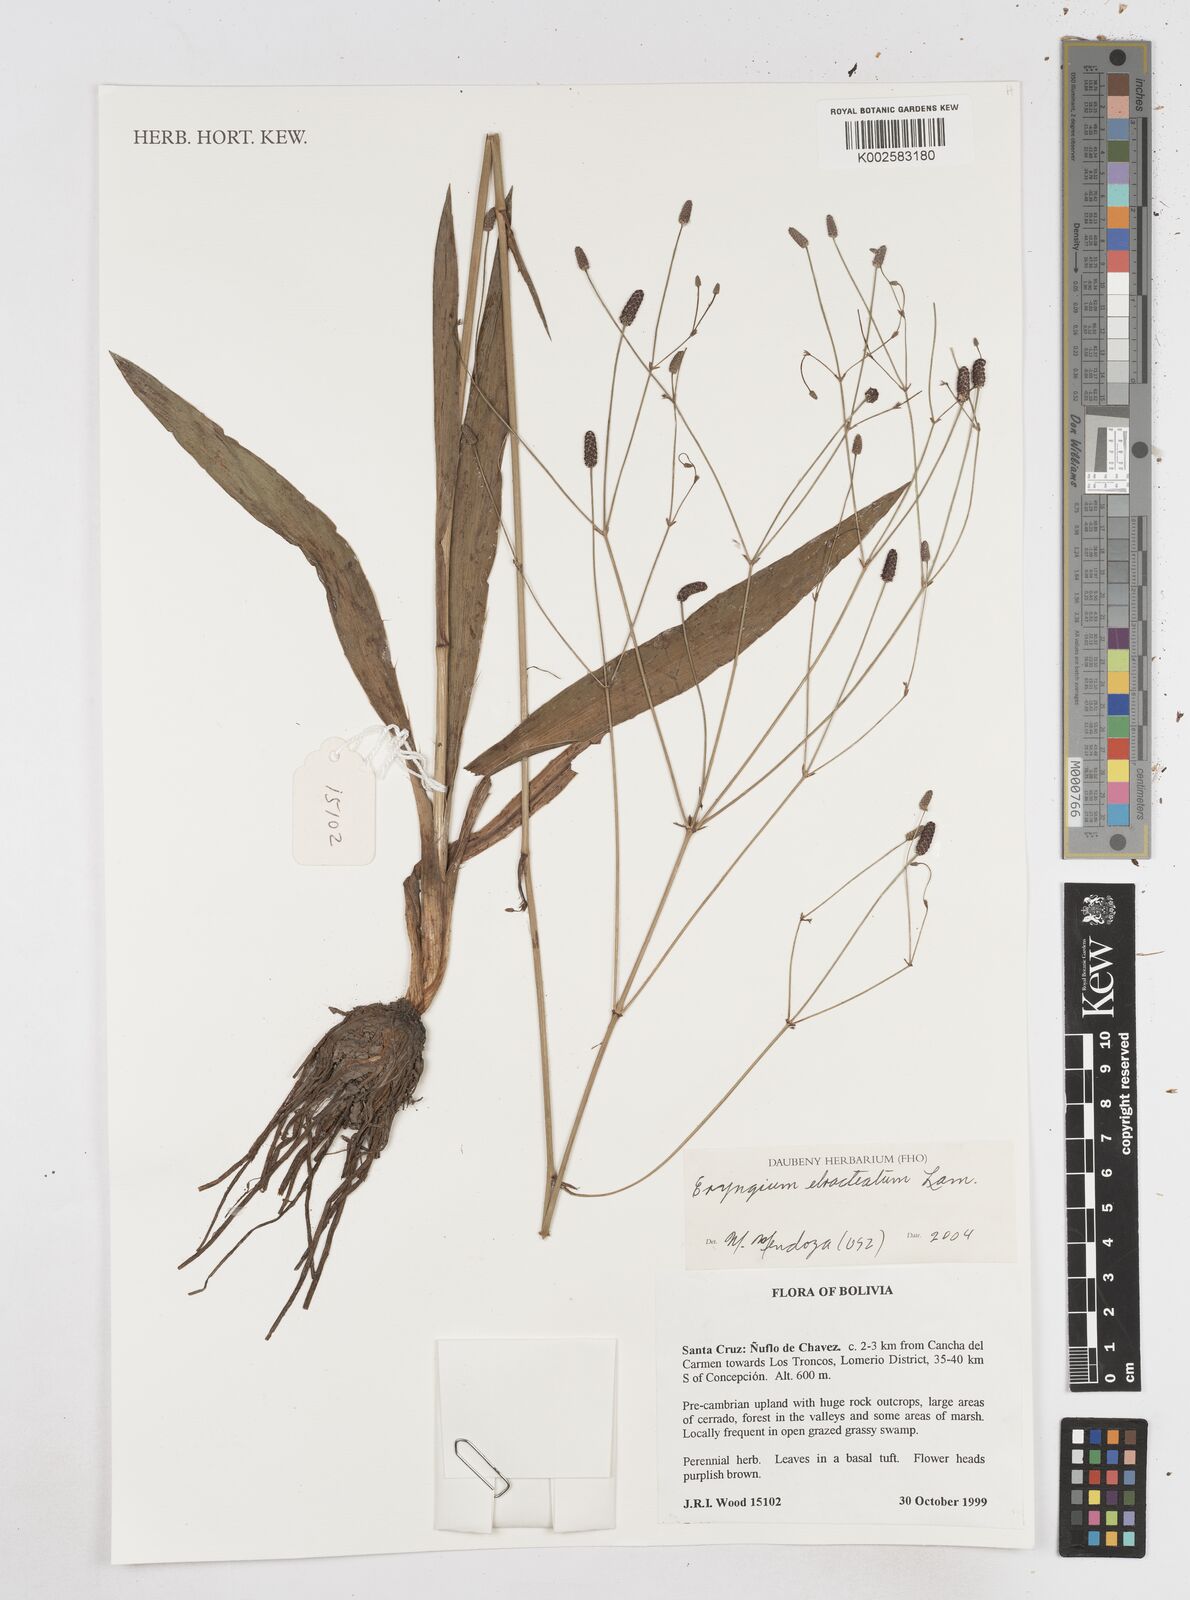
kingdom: Plantae
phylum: Tracheophyta
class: Magnoliopsida
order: Apiales
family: Apiaceae
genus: Eryngium
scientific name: Eryngium ebracteatum
